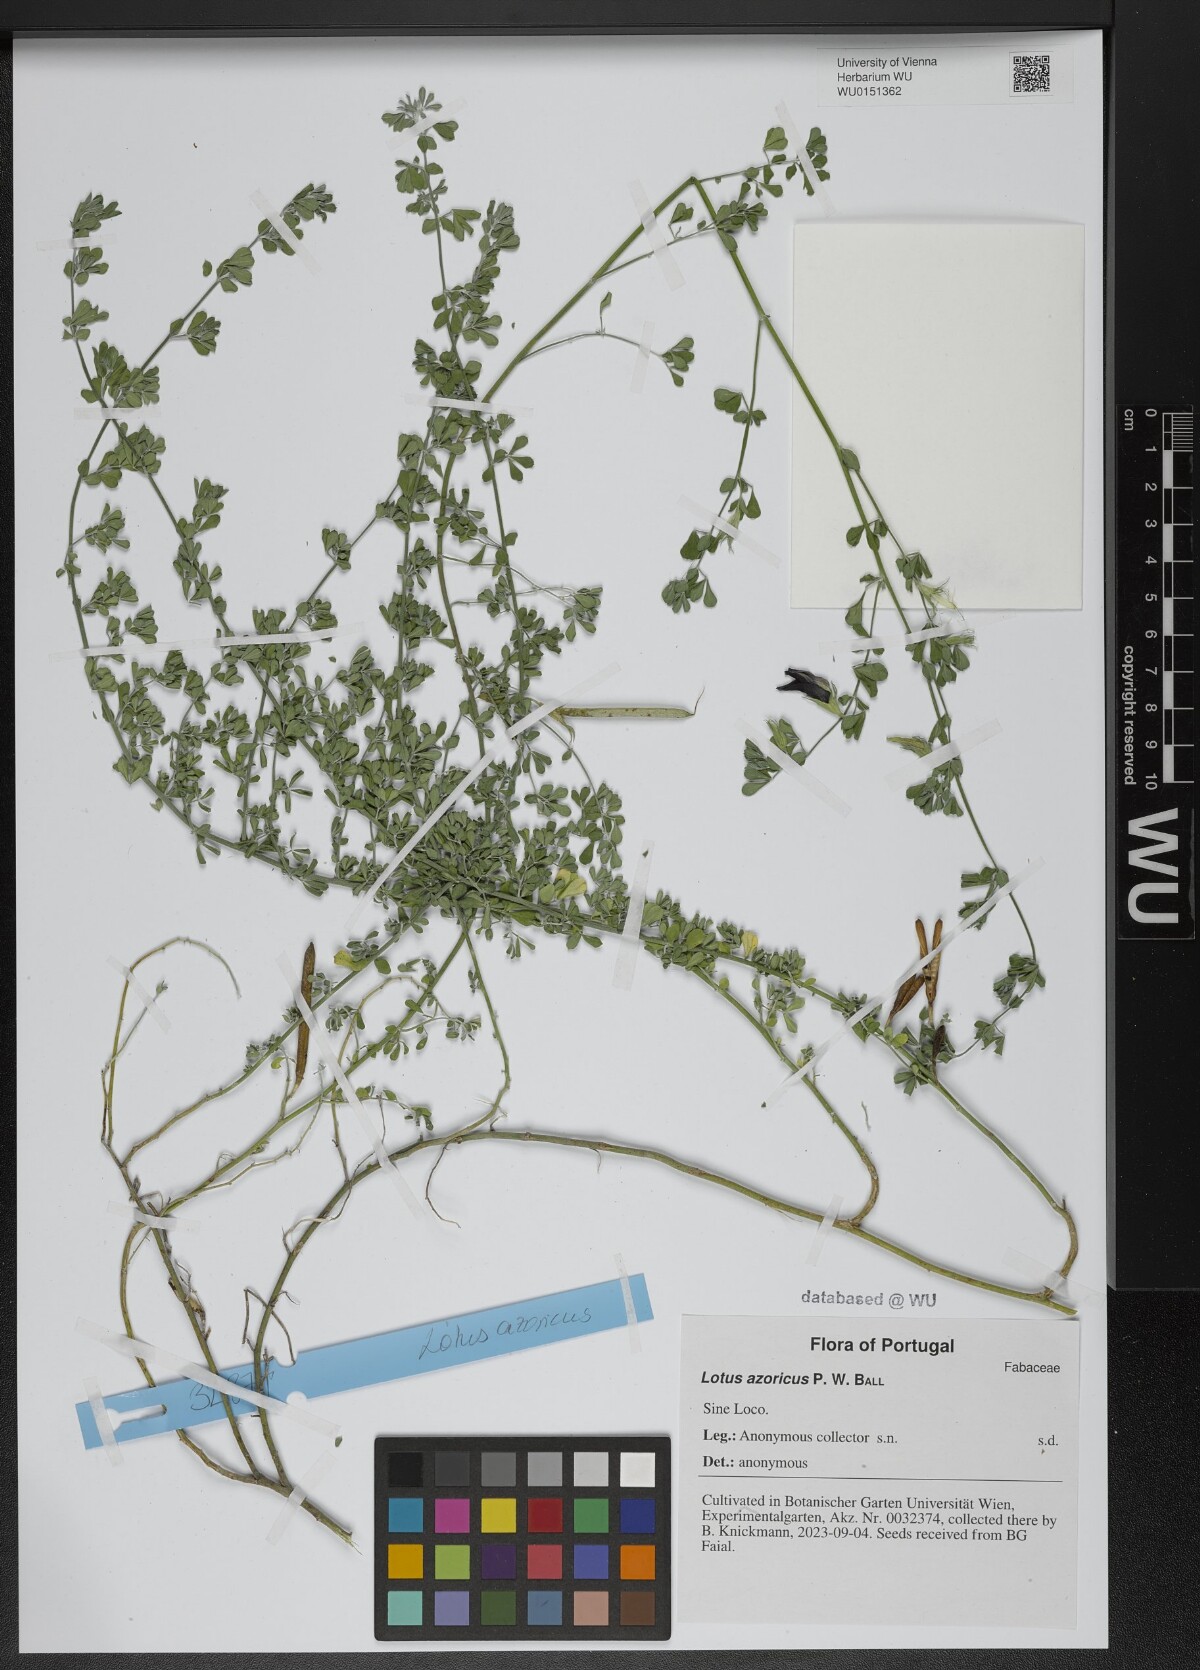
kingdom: Plantae
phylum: Tracheophyta
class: Magnoliopsida
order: Fabales
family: Fabaceae
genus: Lotus
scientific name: Lotus argyrodes
